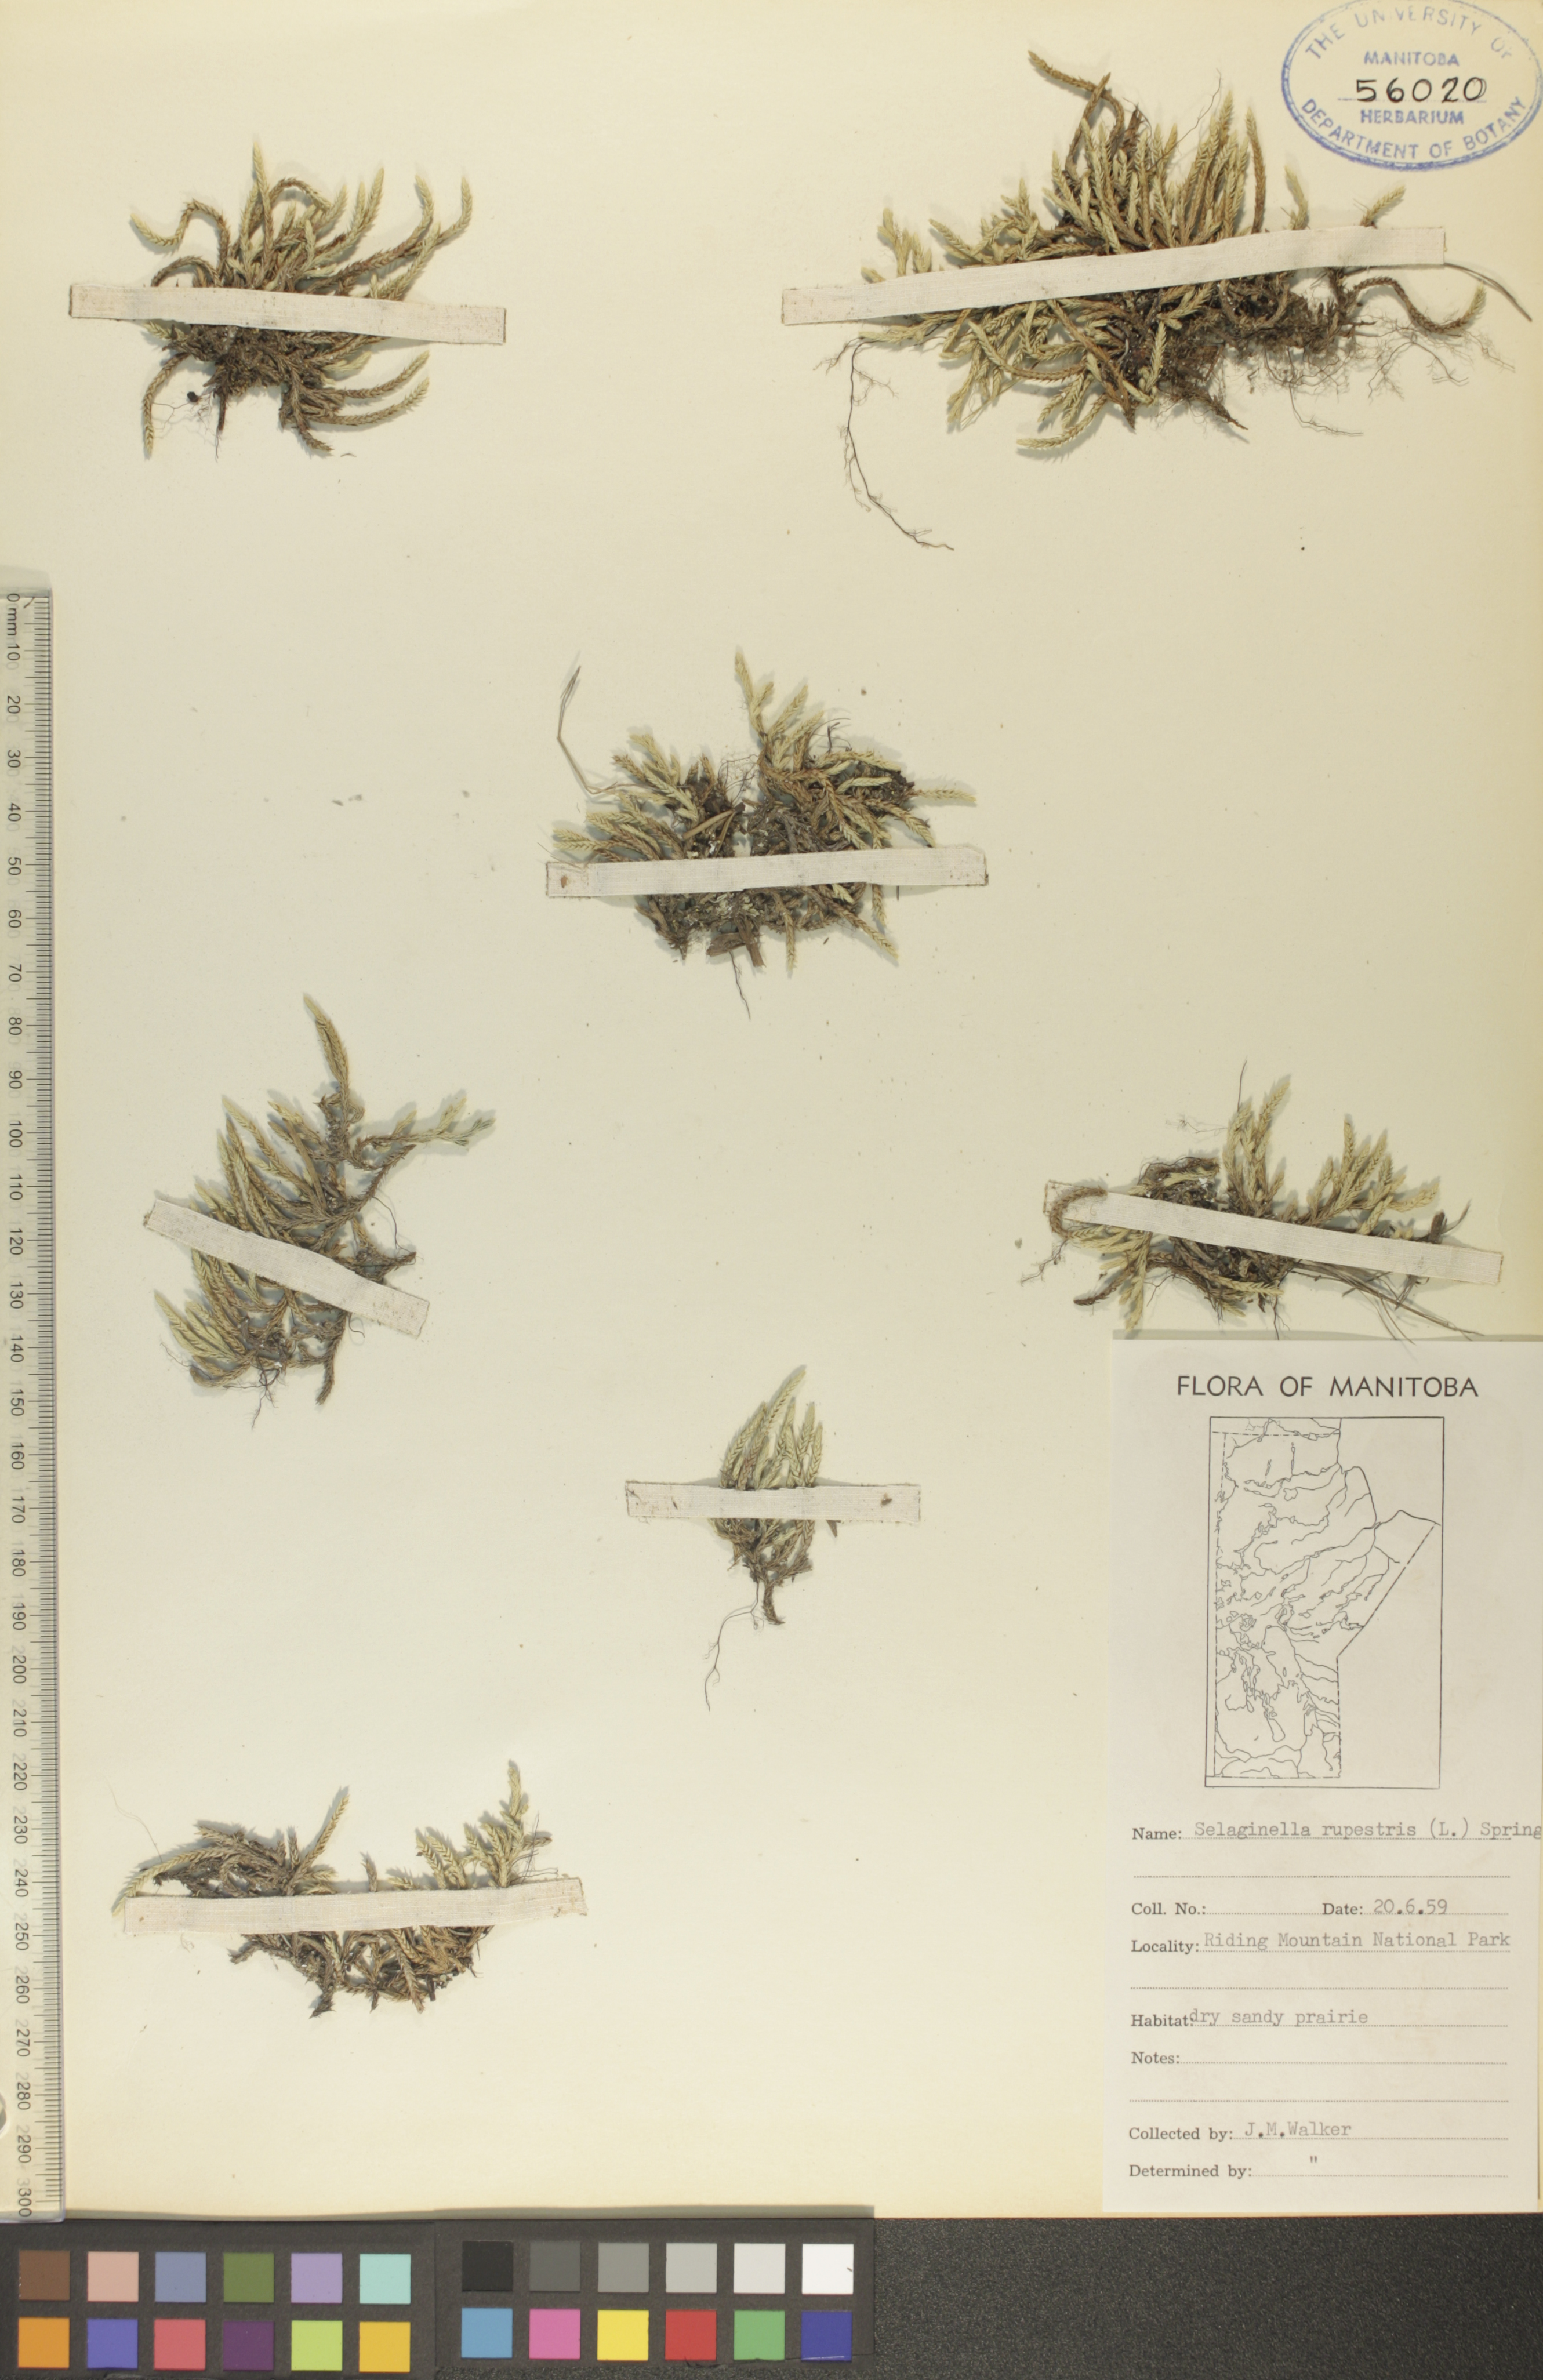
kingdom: Plantae
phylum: Tracheophyta
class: Lycopodiopsida
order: Selaginellales
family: Selaginellaceae
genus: Selaginella
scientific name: Selaginella rupestris
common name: Dwarf spikemoss
